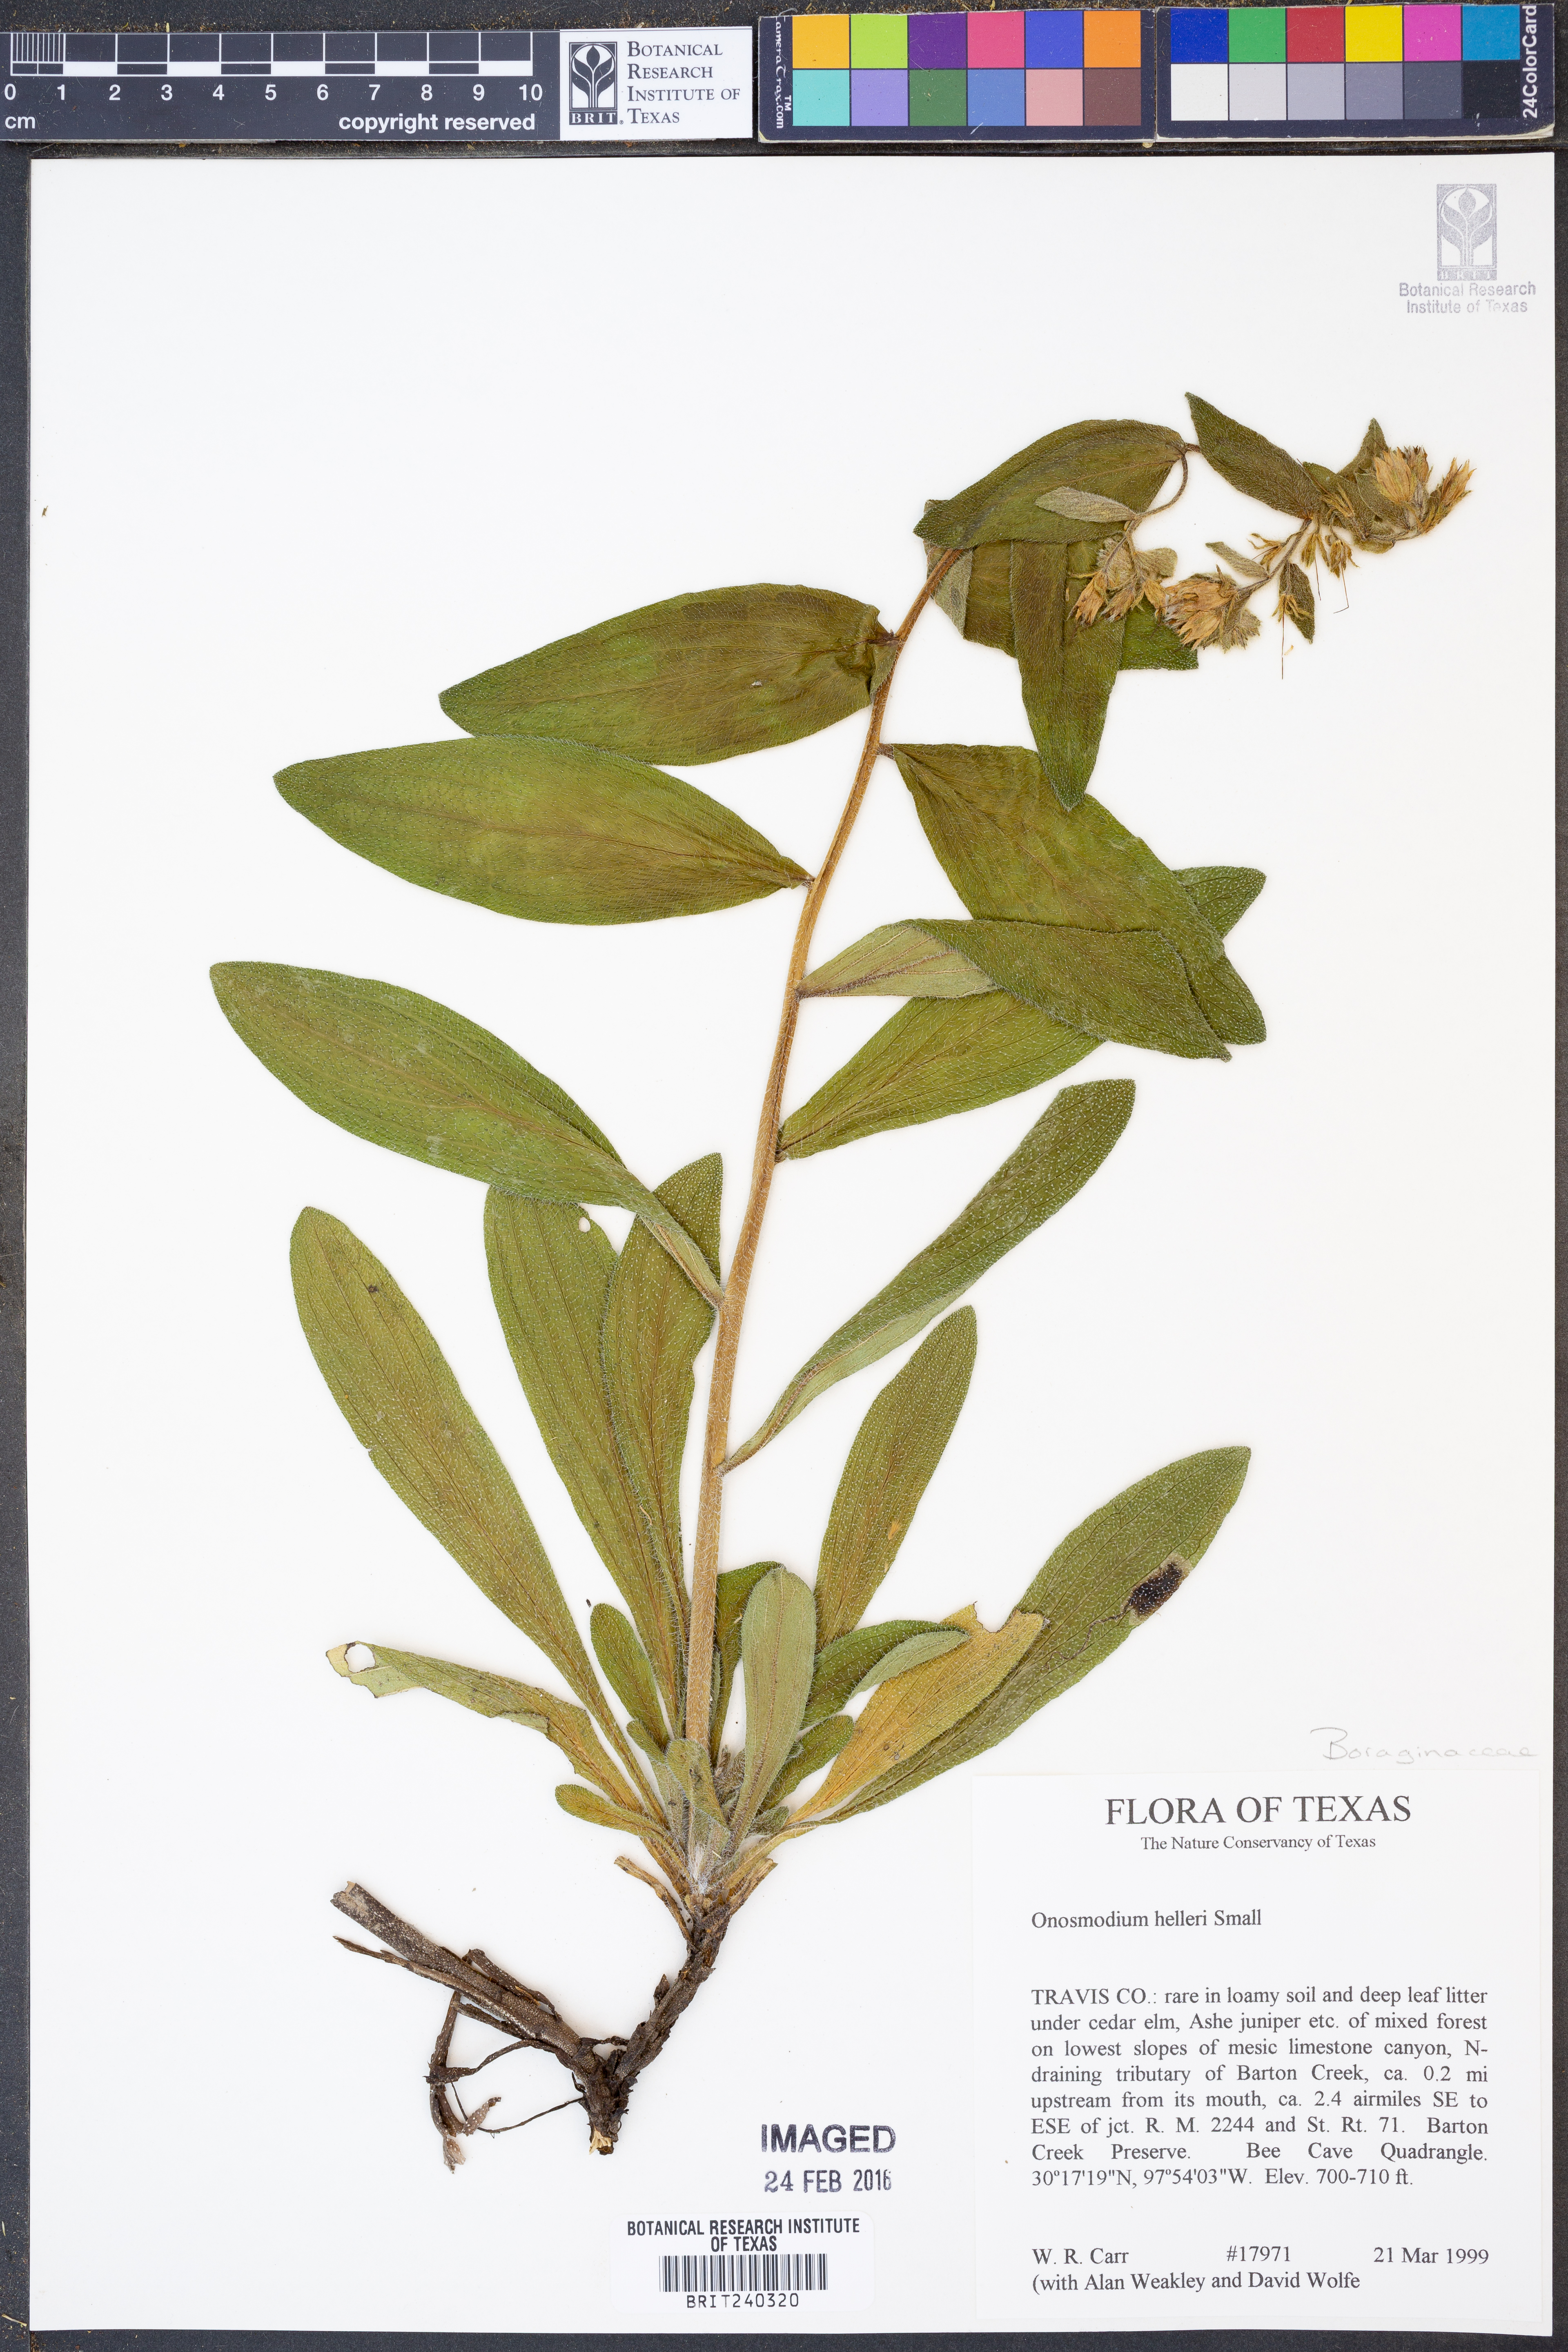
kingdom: Plantae
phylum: Tracheophyta
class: Magnoliopsida
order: Boraginales
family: Boraginaceae
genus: Lithospermum
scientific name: Lithospermum helleri
